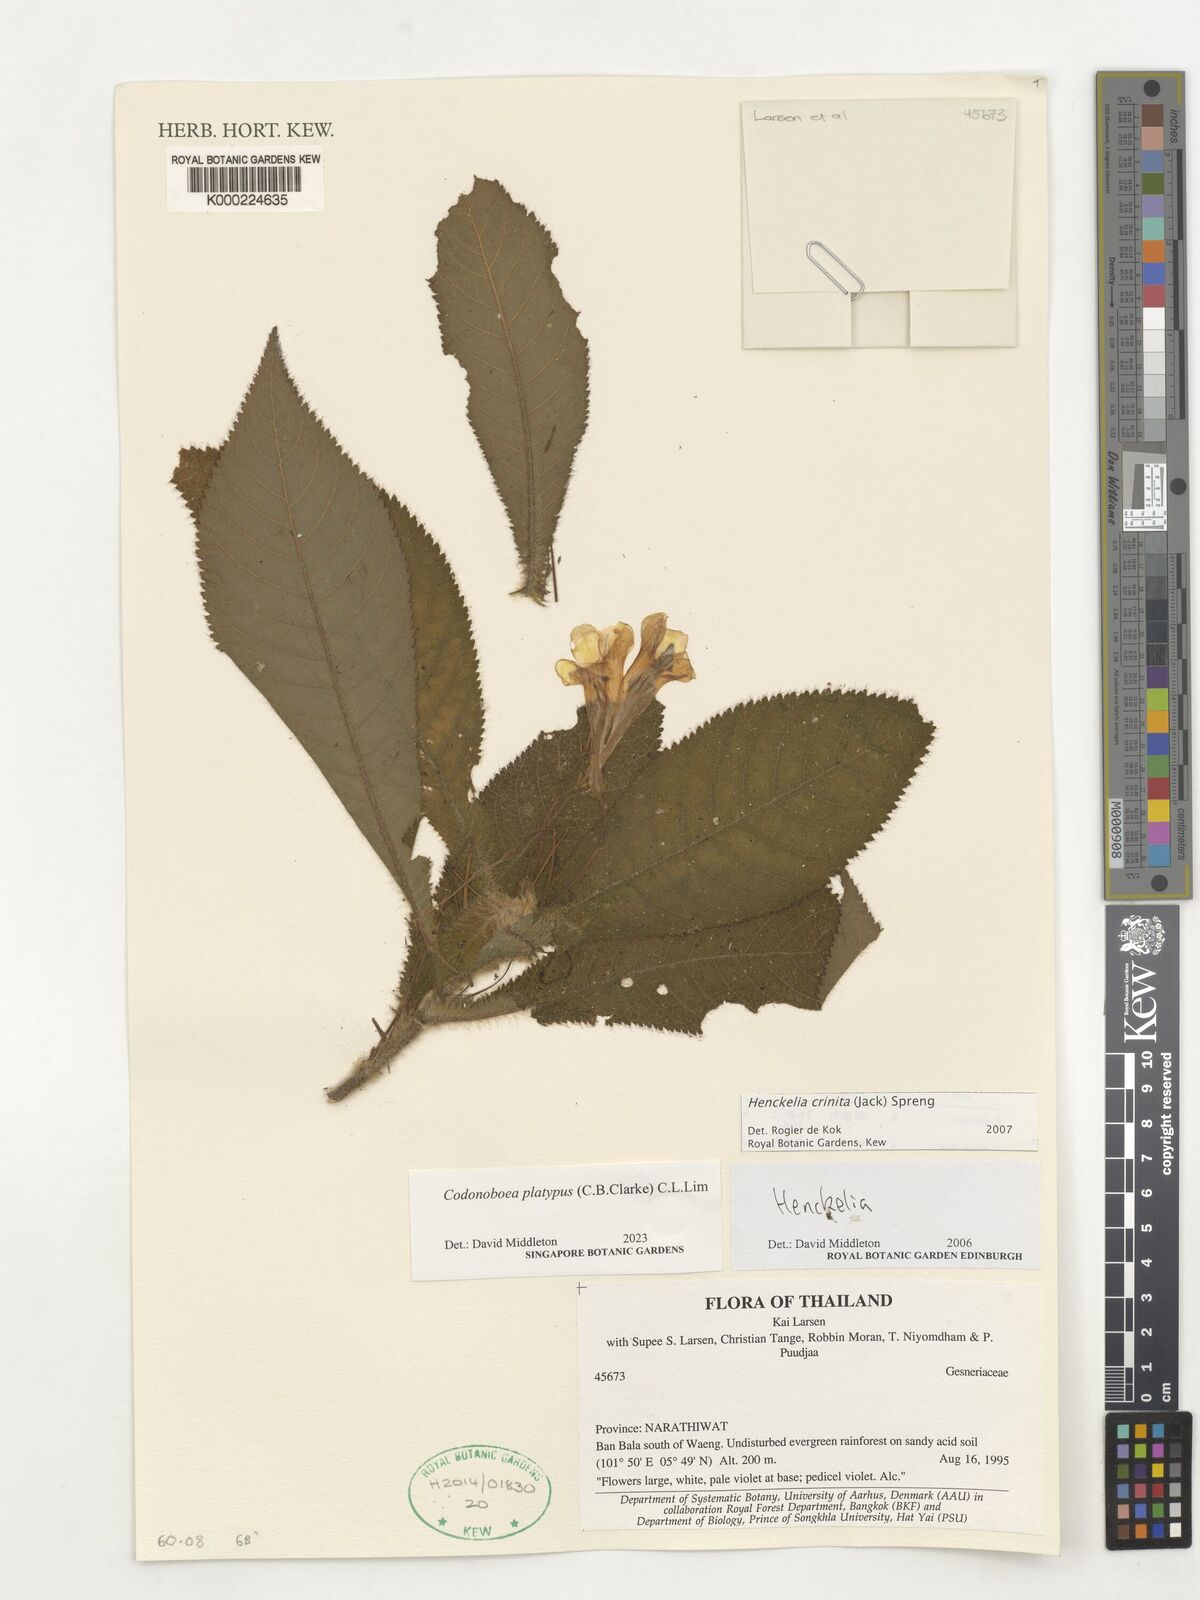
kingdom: Plantae
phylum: Tracheophyta
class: Magnoliopsida
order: Lamiales
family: Gesneriaceae
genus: Codonoboea
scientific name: Codonoboea platypus
